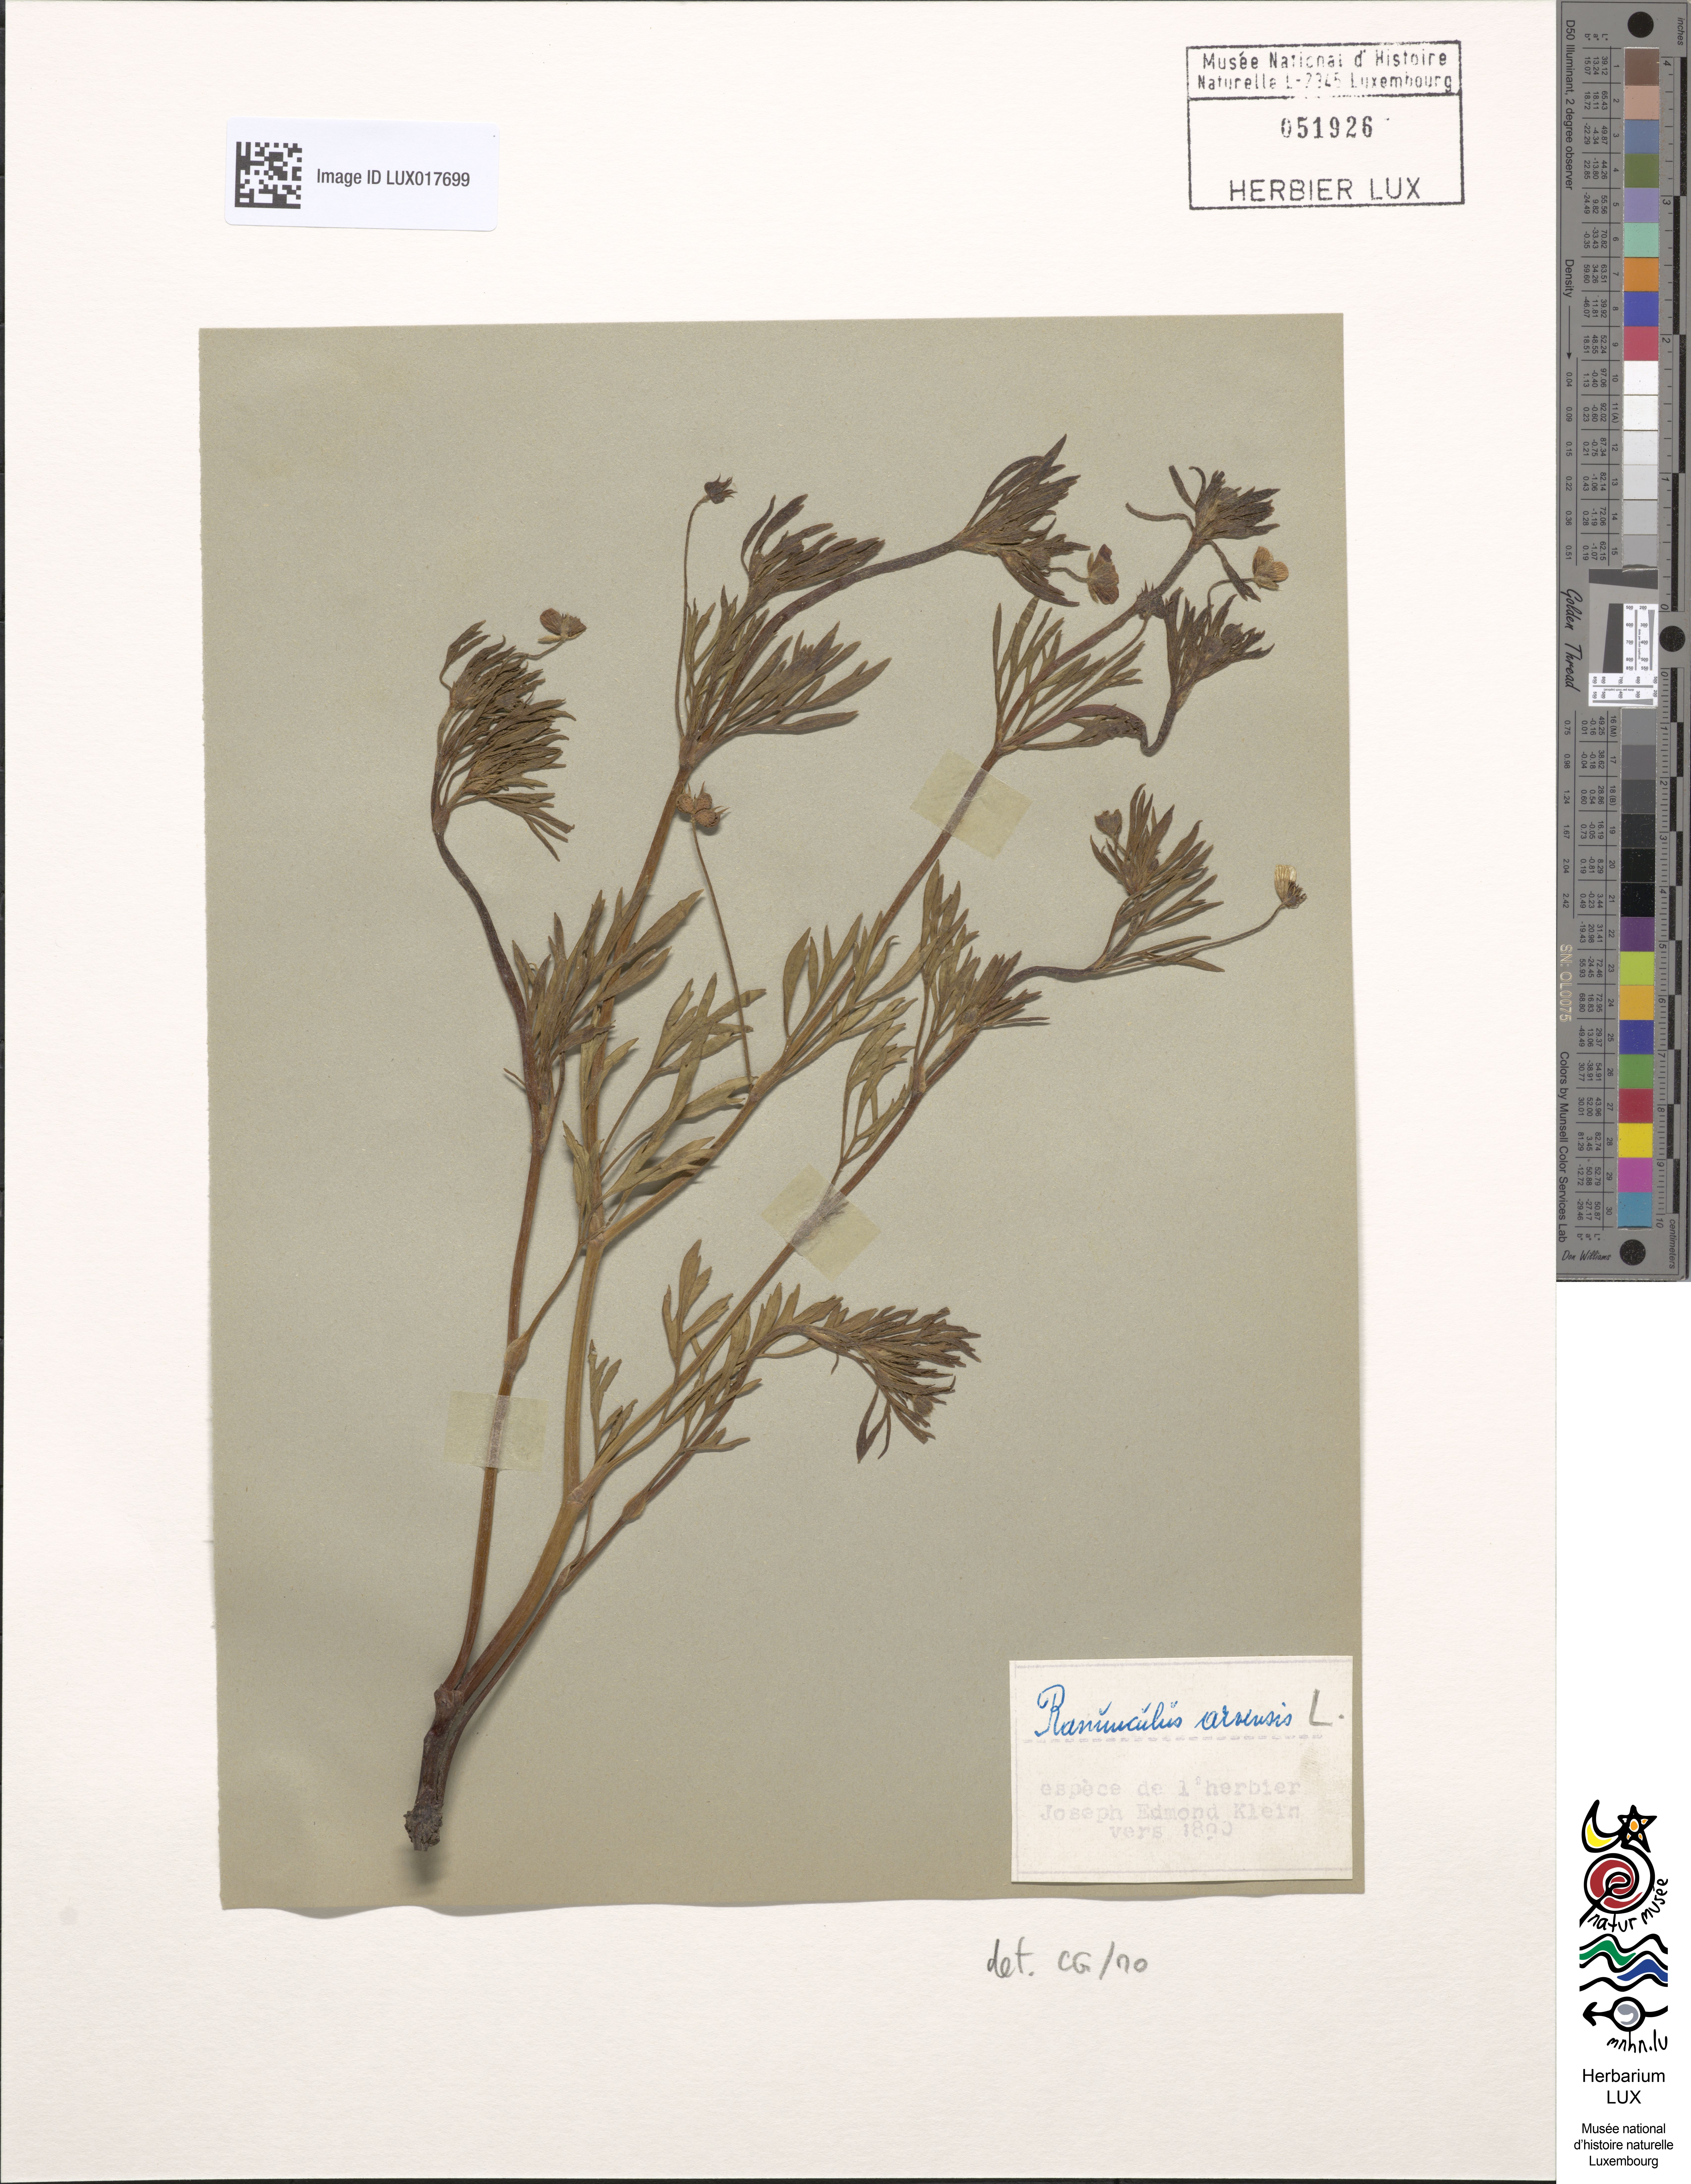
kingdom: Plantae
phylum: Tracheophyta
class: Magnoliopsida
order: Ranunculales
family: Ranunculaceae
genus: Ranunculus
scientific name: Ranunculus arvensis
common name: Corn buttercup
